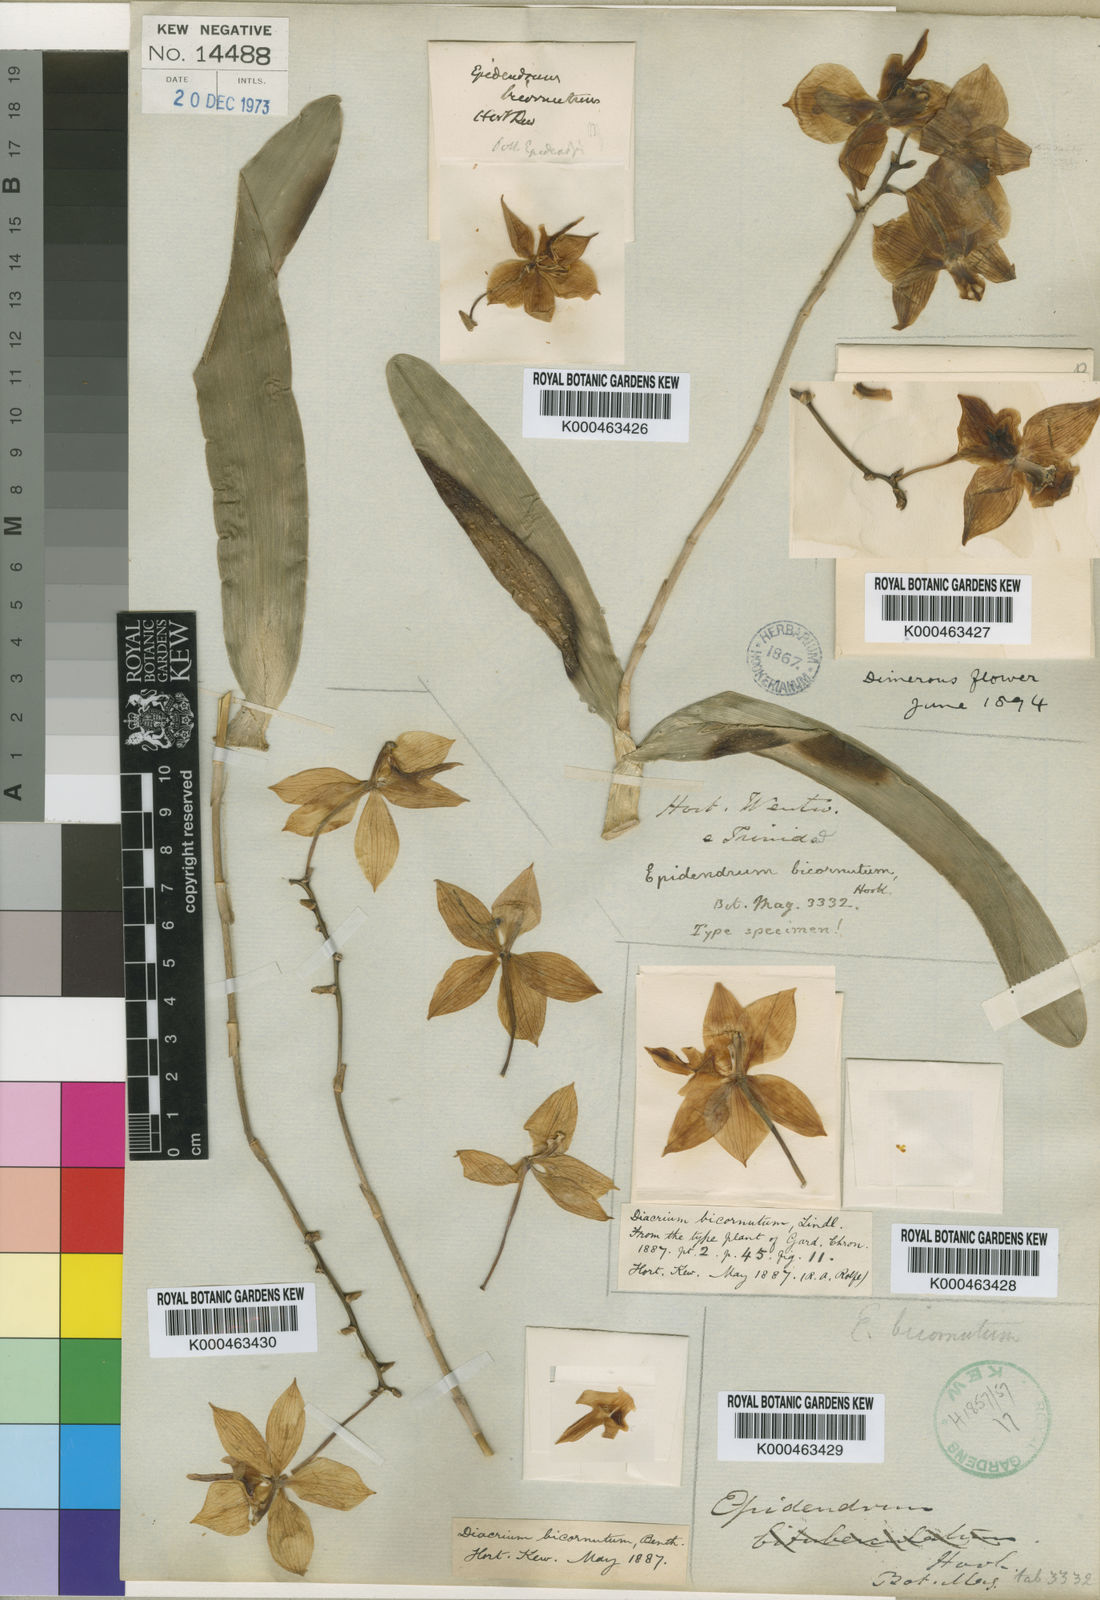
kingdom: Plantae
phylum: Tracheophyta
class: Liliopsida
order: Asparagales
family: Orchidaceae
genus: Caularthron
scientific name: Caularthron bicornutum
